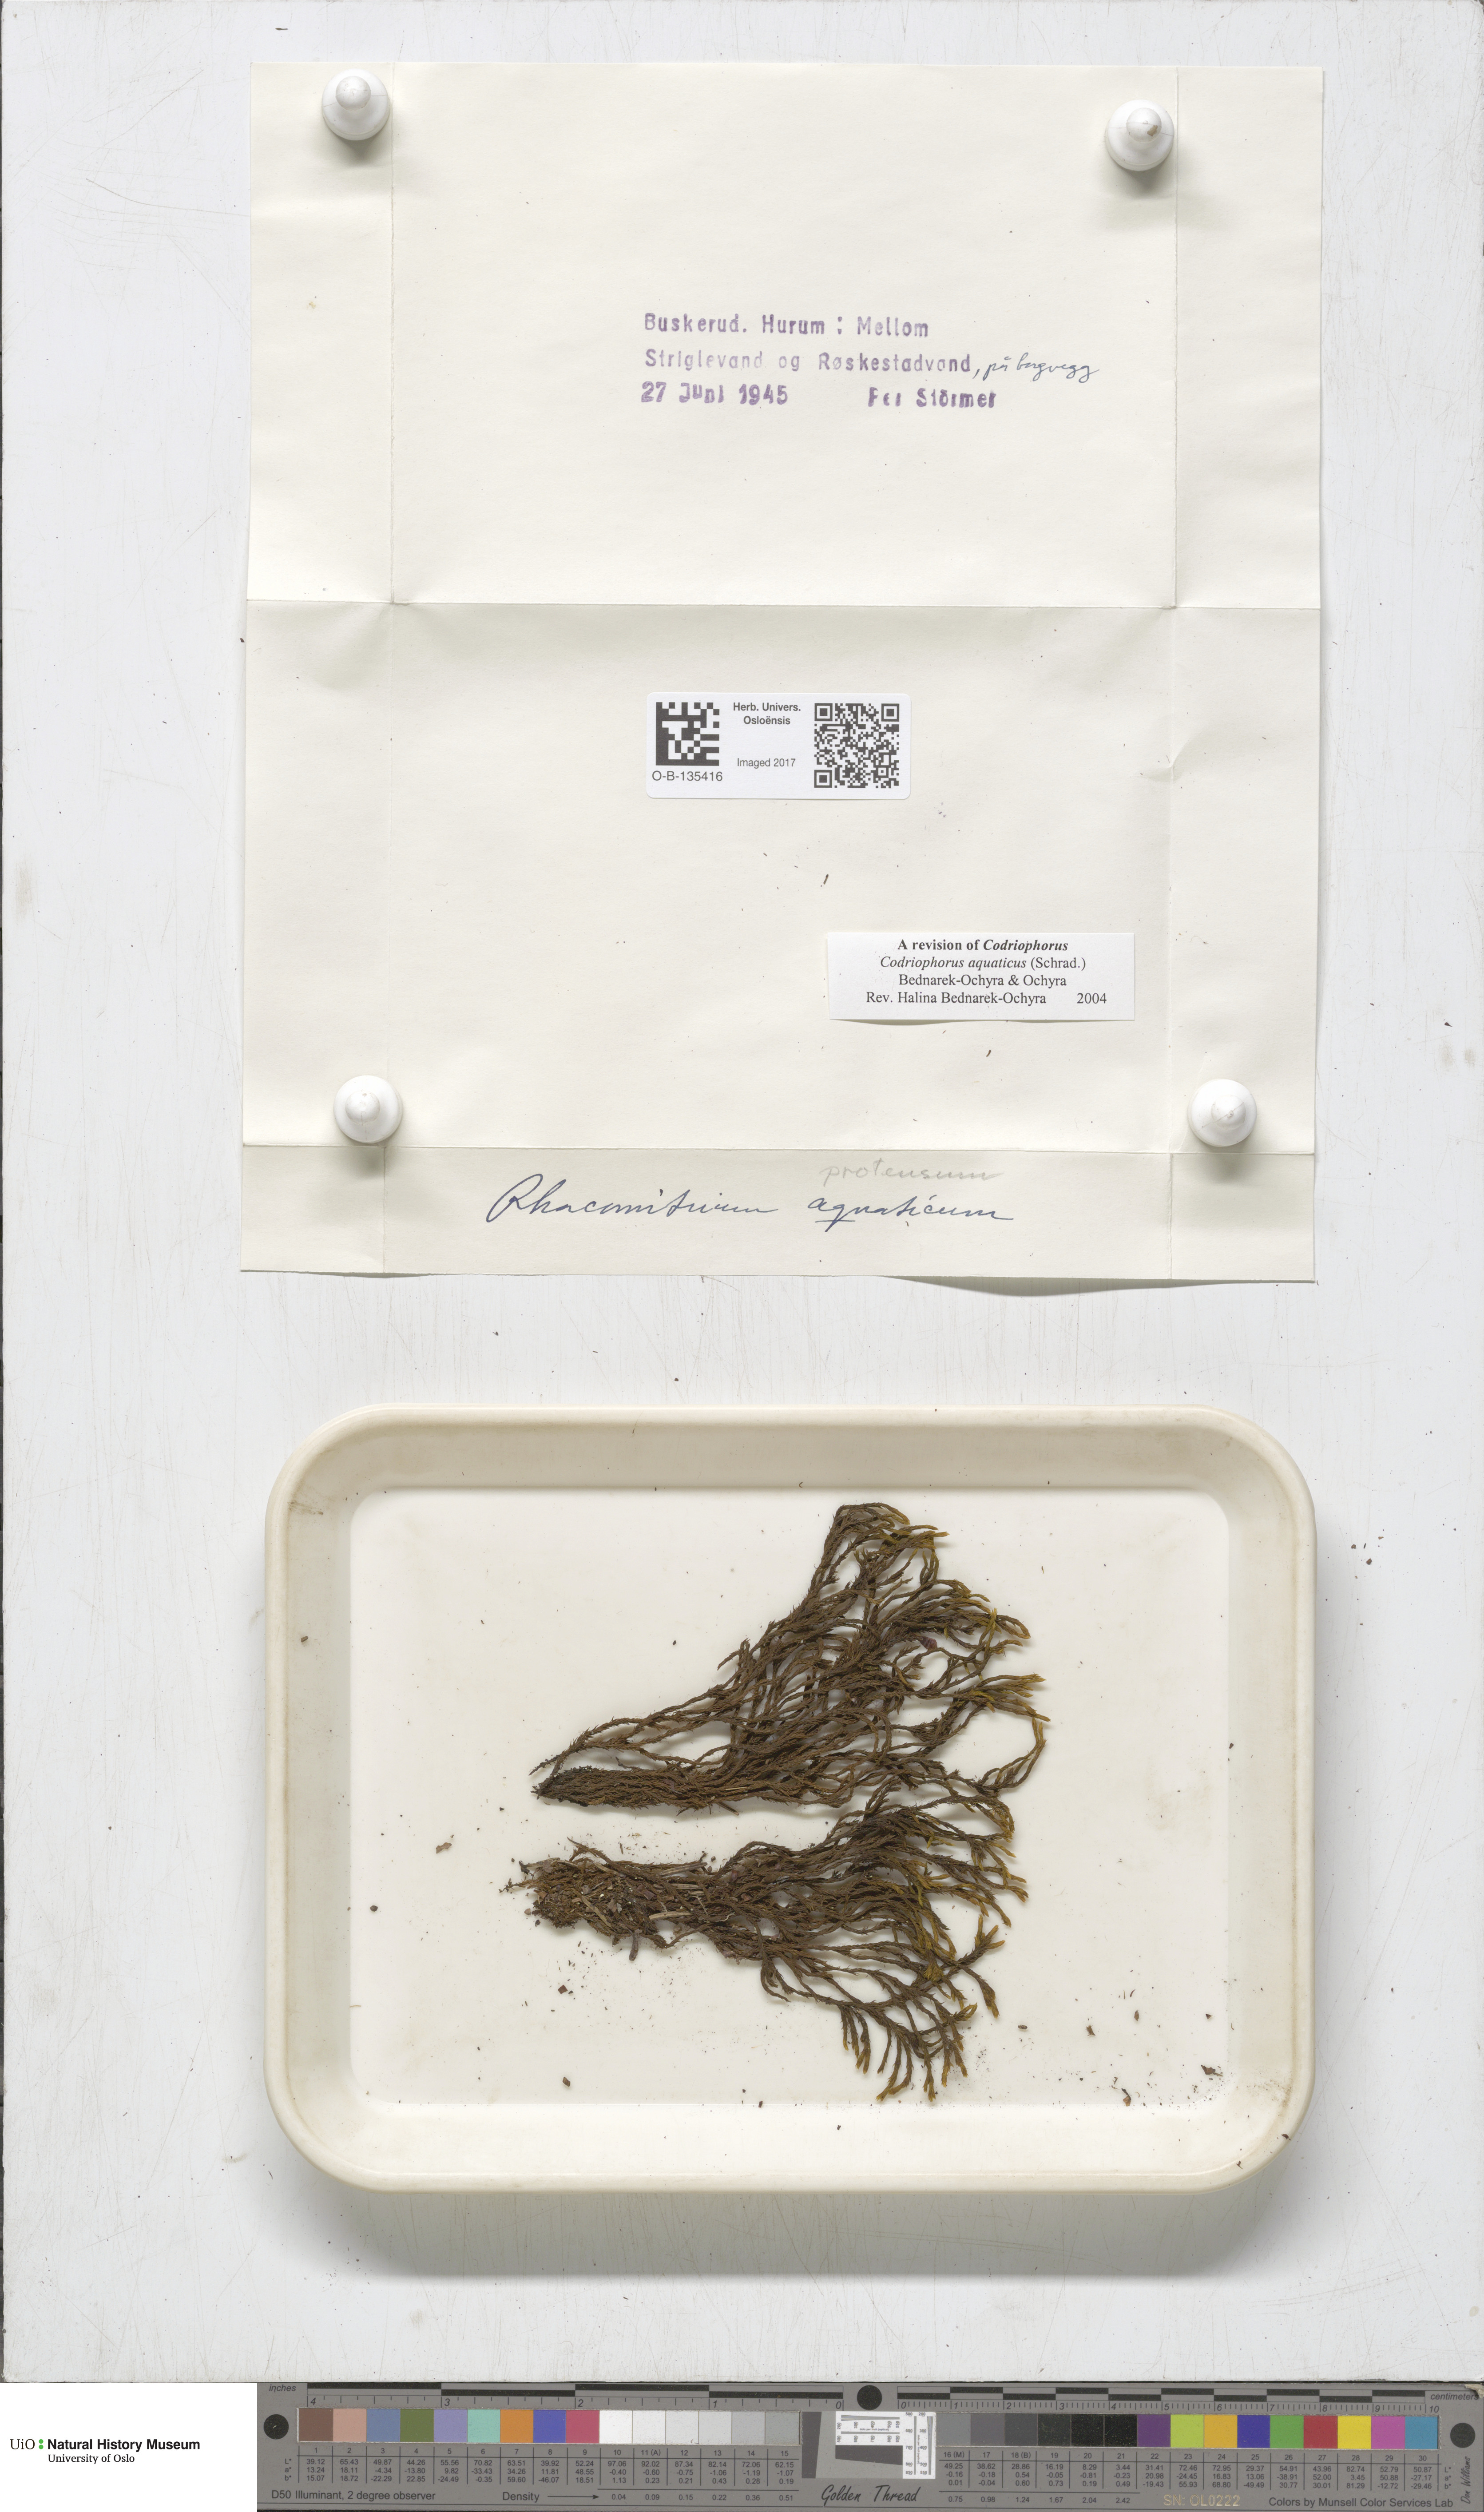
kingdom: Plantae
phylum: Bryophyta
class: Bryopsida
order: Grimmiales
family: Grimmiaceae
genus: Codriophorus
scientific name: Codriophorus aquaticus
